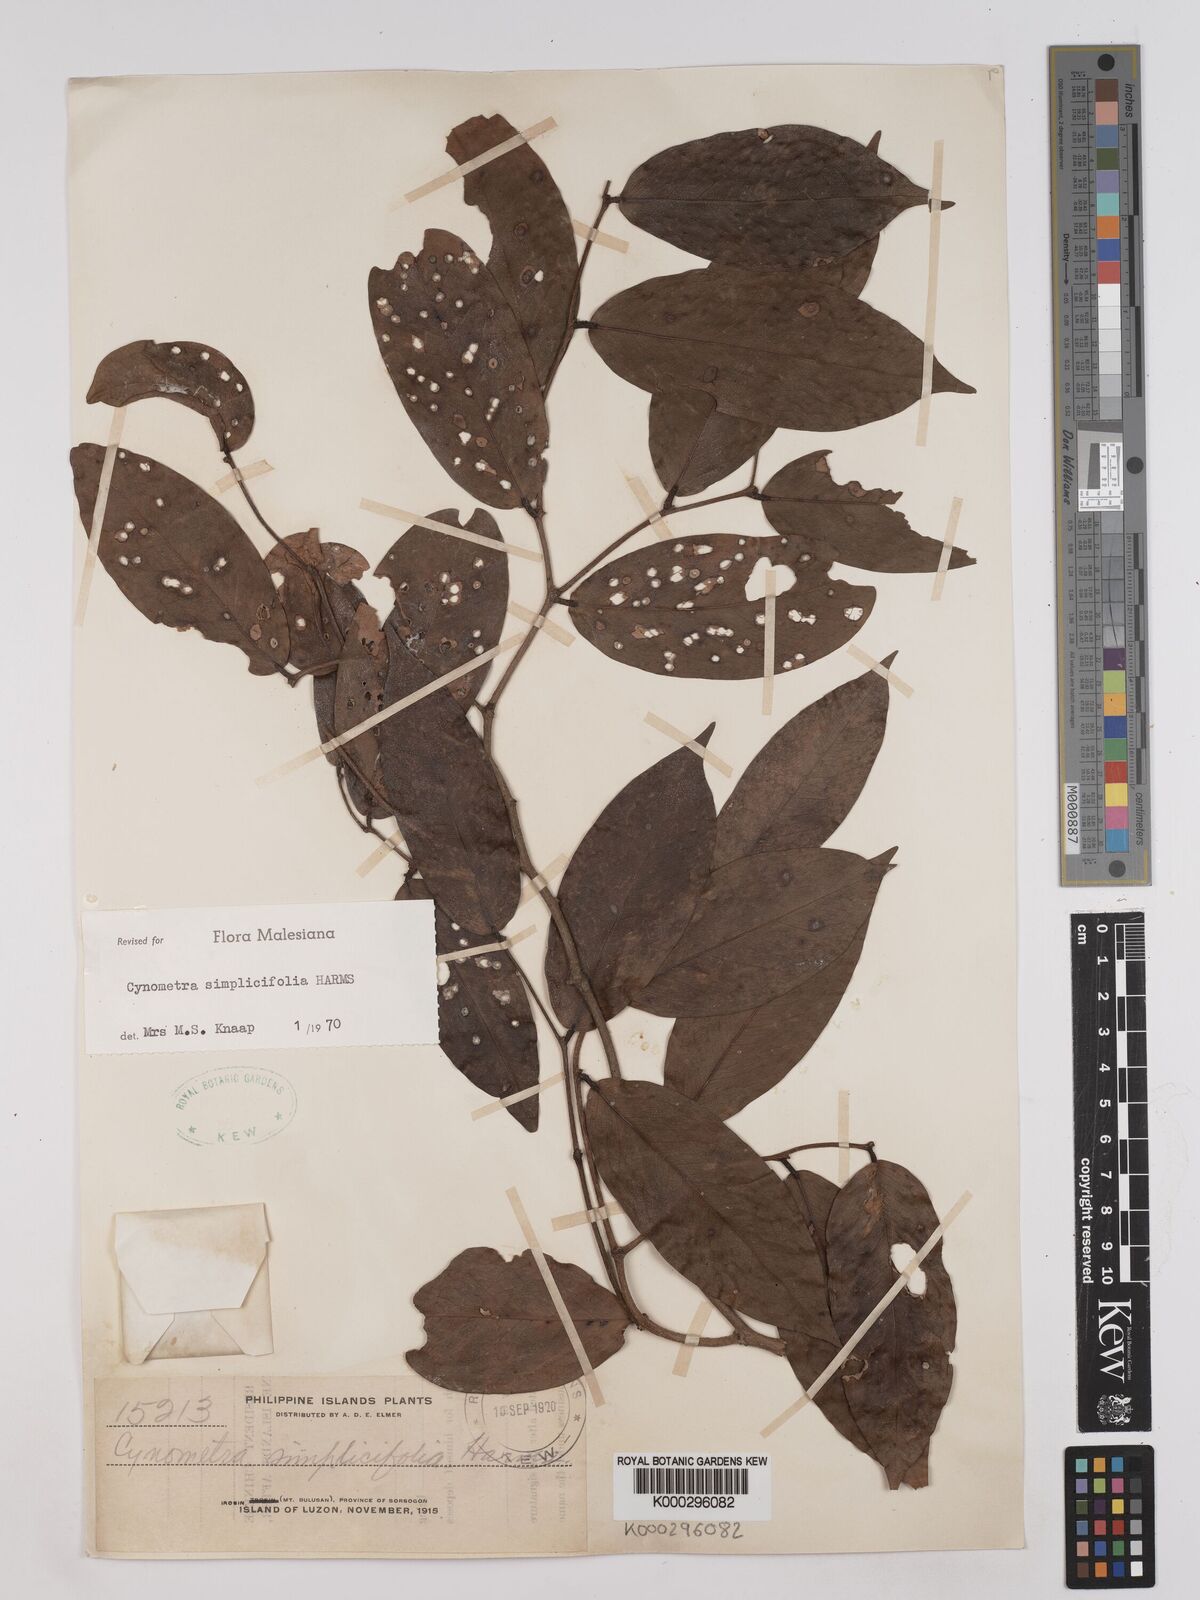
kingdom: Plantae
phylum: Tracheophyta
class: Magnoliopsida
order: Fabales
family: Fabaceae
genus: Cynometra
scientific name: Cynometra simplicifolia
